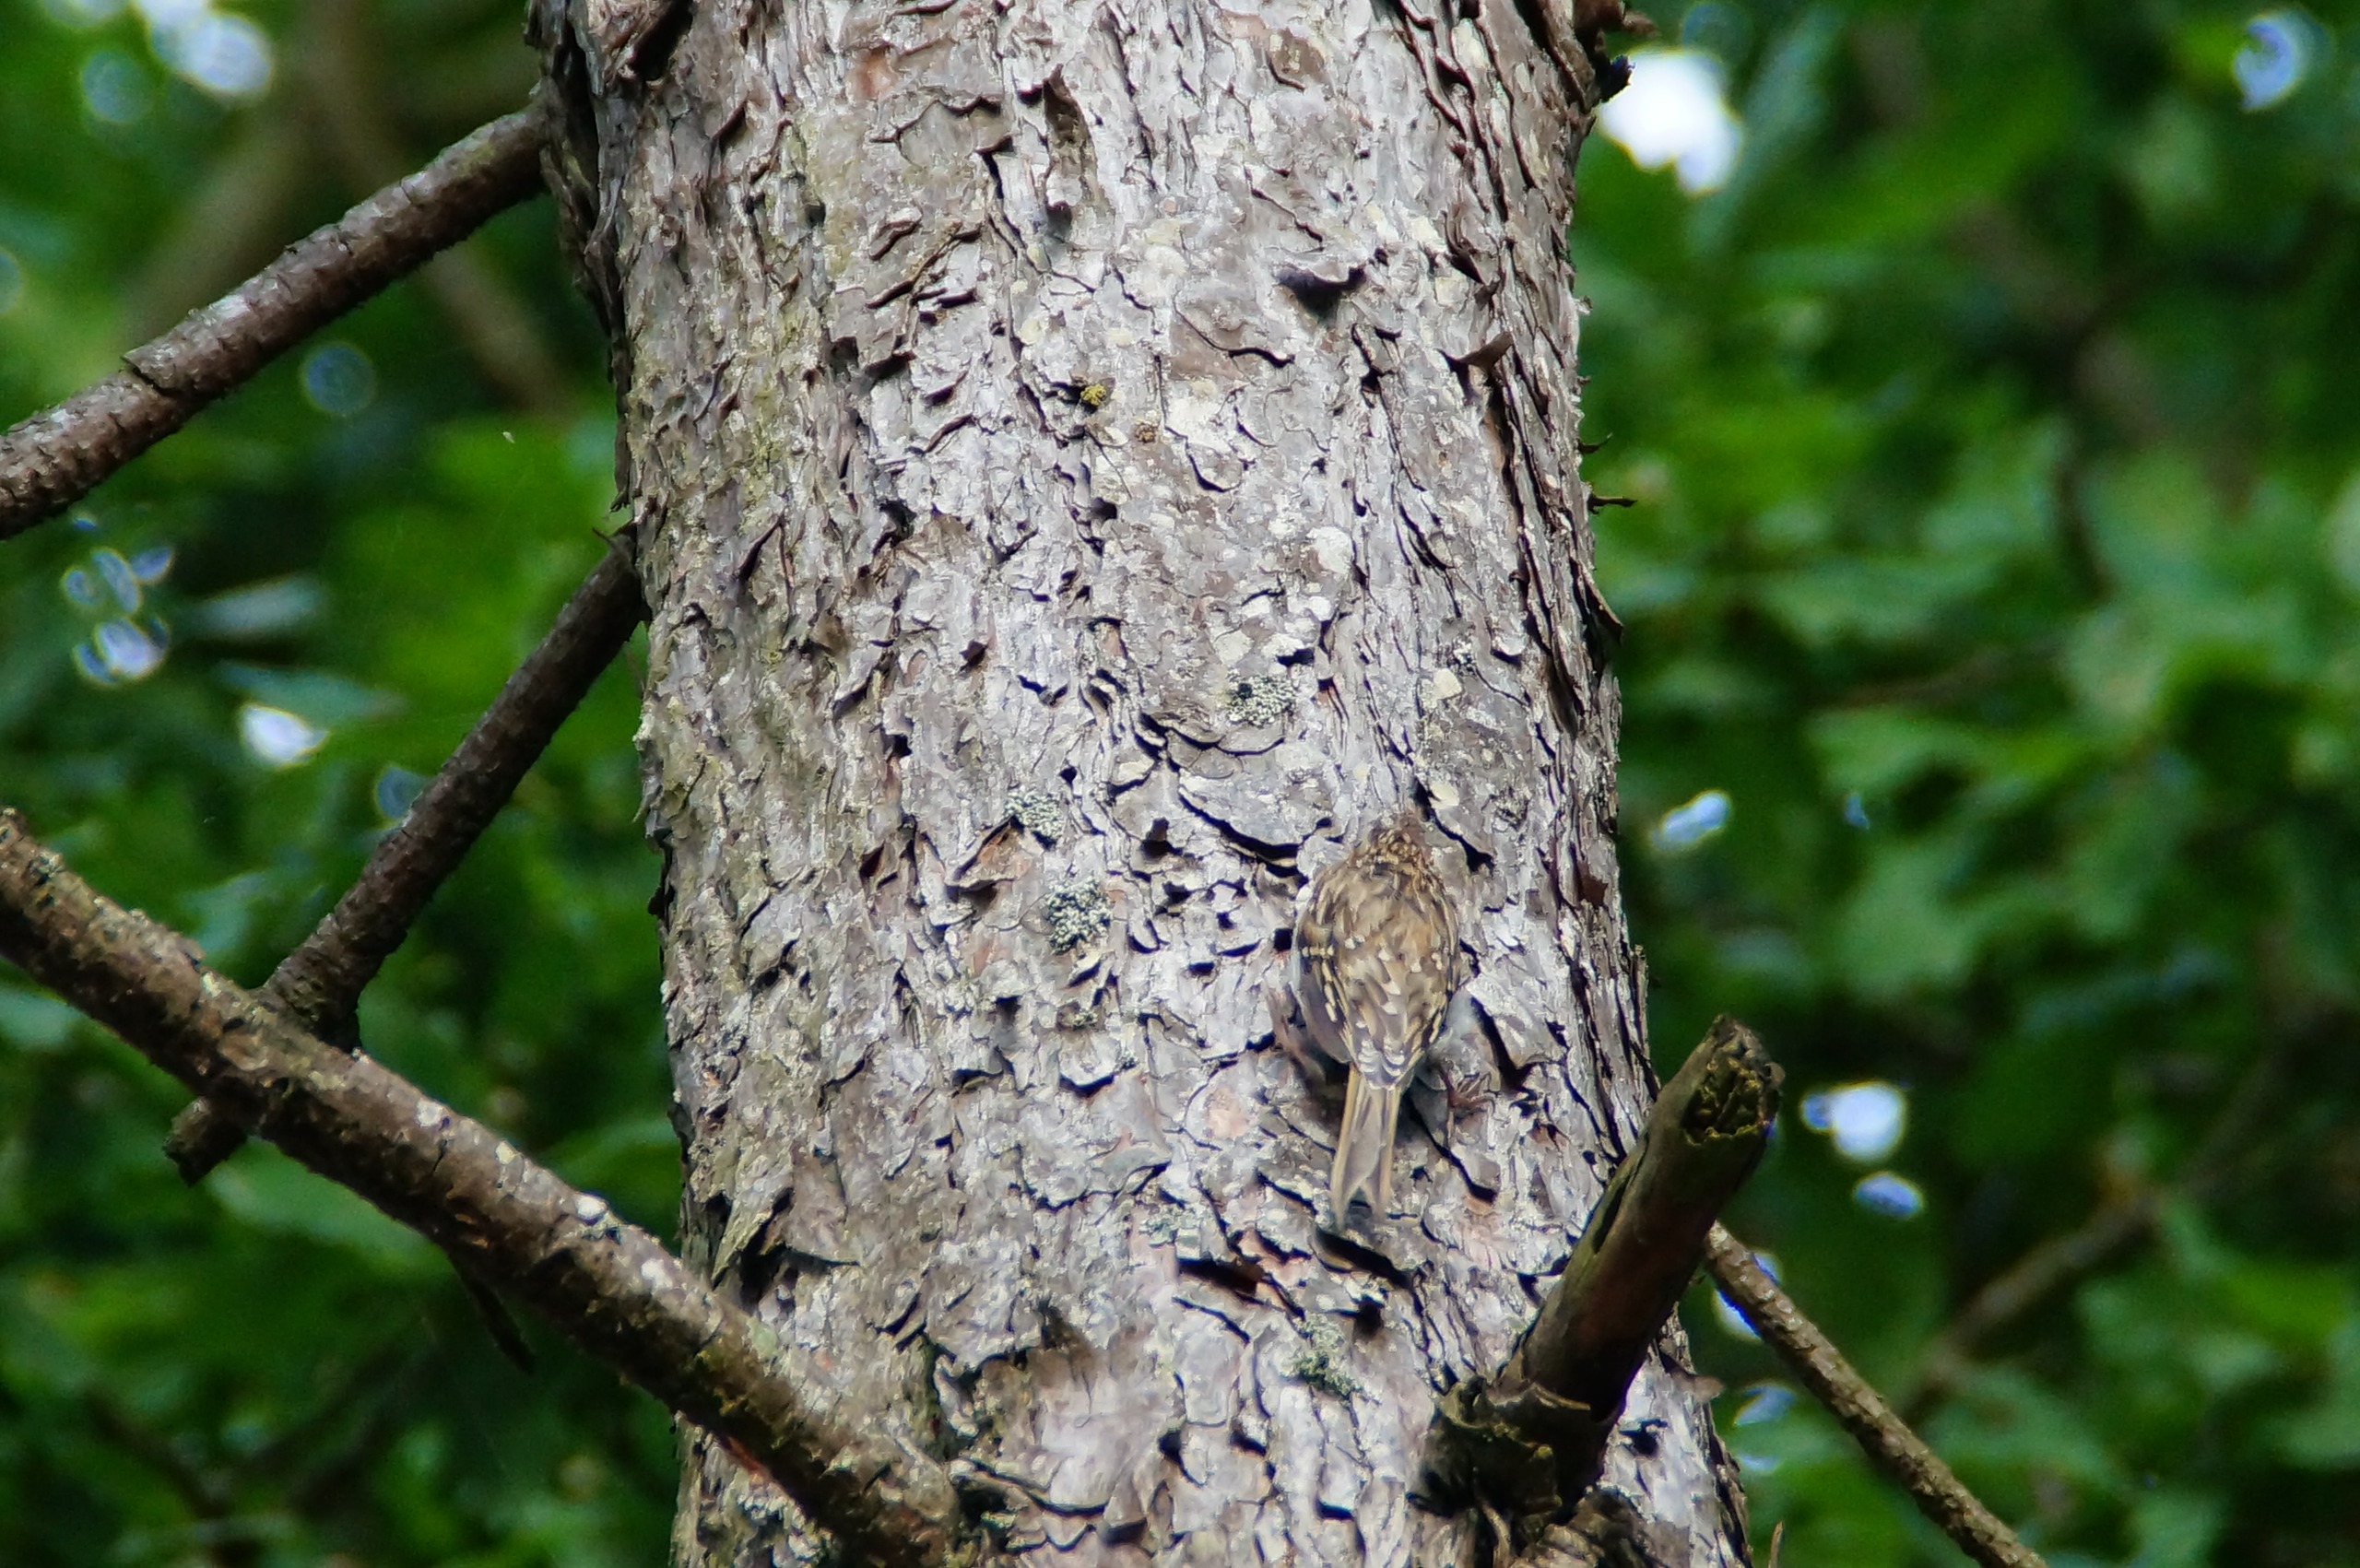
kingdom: Animalia
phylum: Chordata
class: Aves
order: Passeriformes
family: Certhiidae
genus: Certhia
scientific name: Certhia familiaris
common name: Træløber
